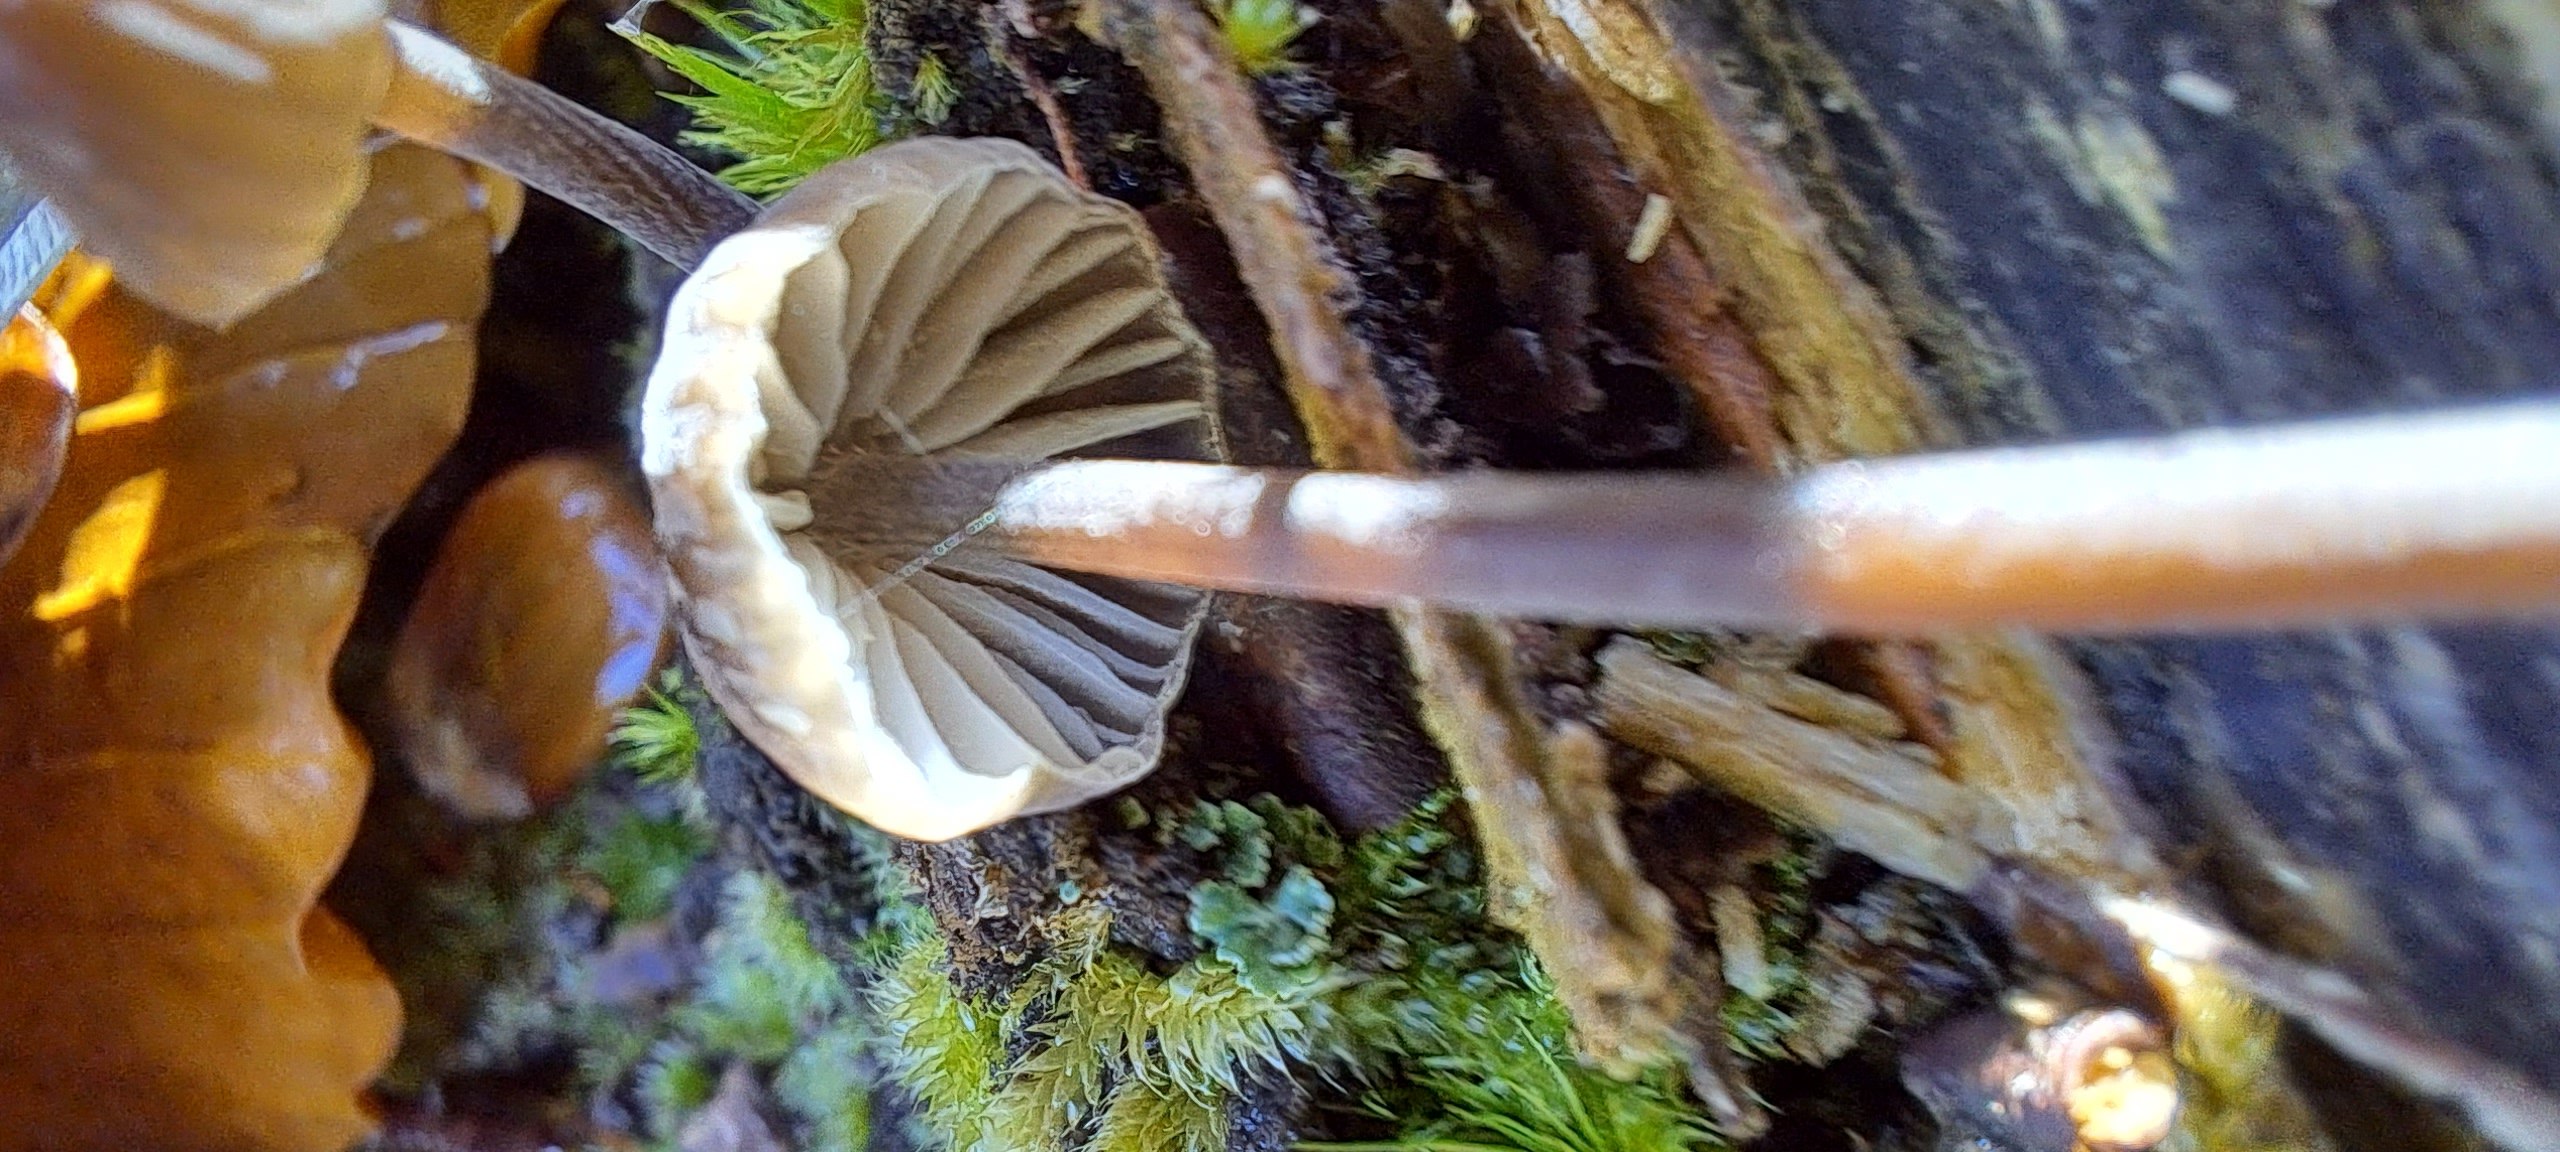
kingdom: Fungi
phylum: Basidiomycota
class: Agaricomycetes
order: Agaricales
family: Mycenaceae
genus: Mycena
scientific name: Mycena galopus
